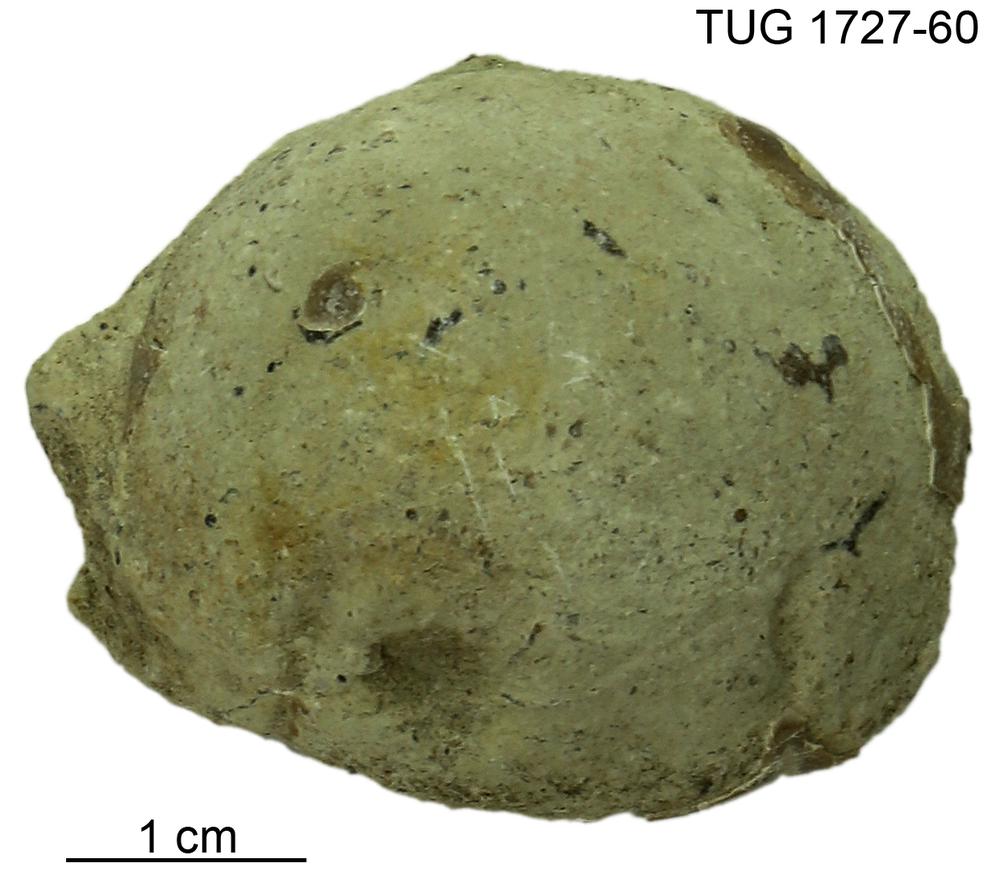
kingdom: Animalia
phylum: Arthropoda
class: Trilobita
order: Corynexochida
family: Illaenidae
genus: Parillaenus
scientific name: Parillaenus
